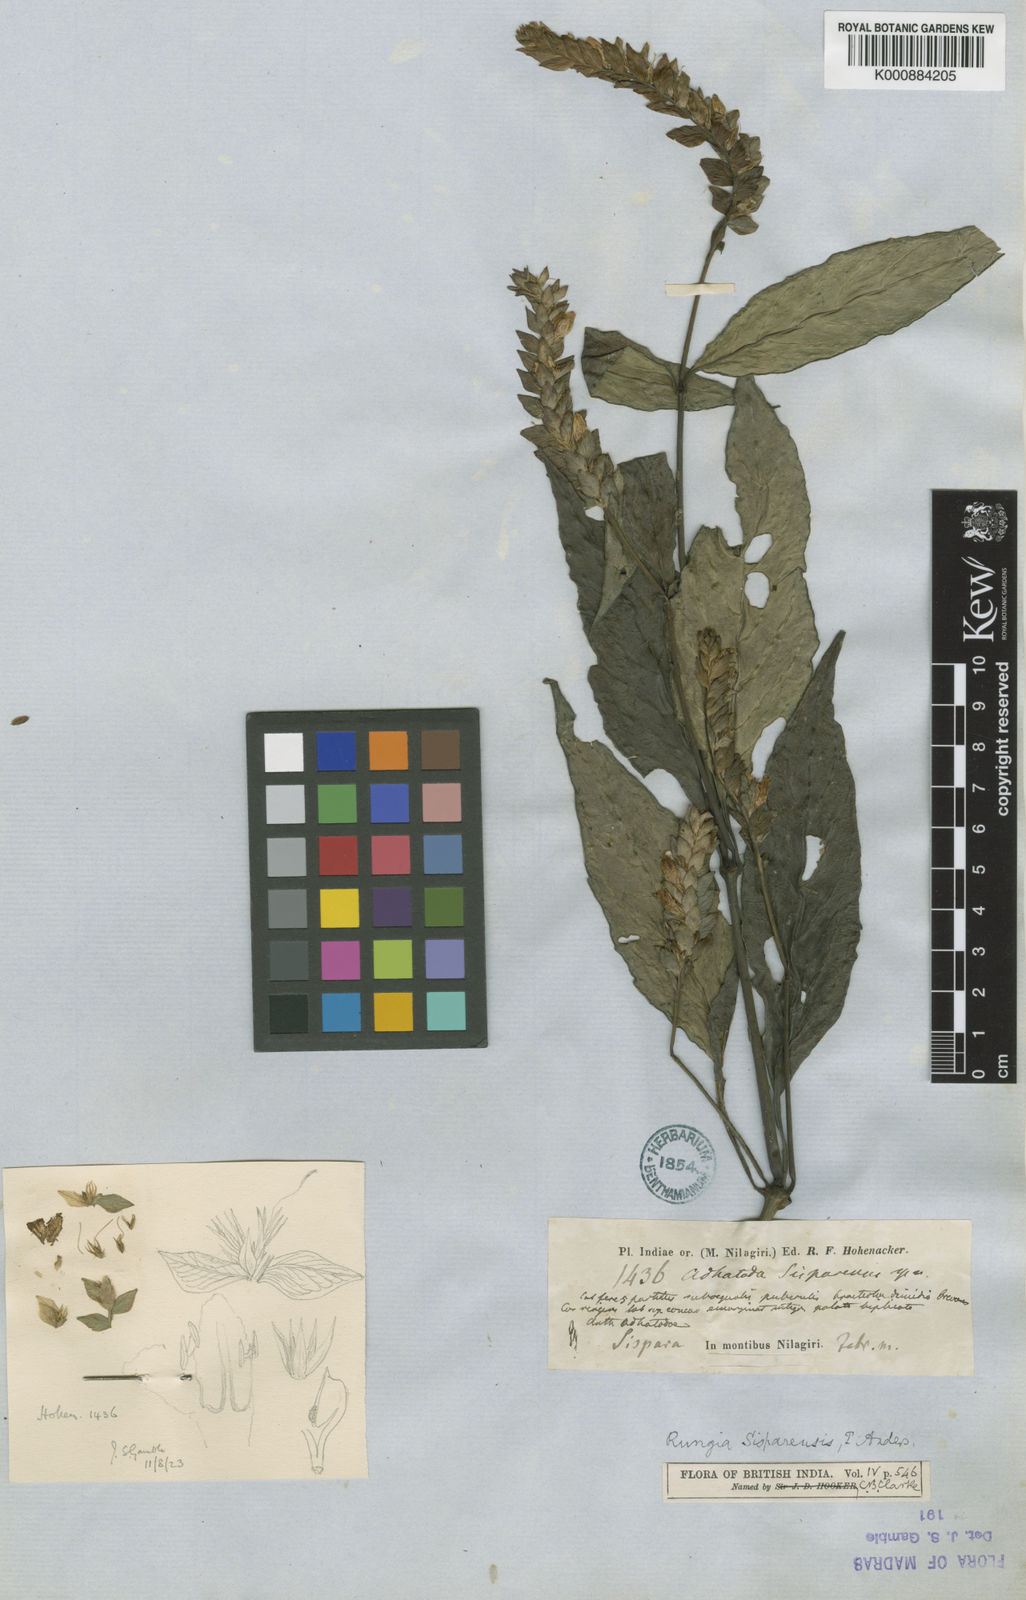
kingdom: Plantae
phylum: Tracheophyta
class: Magnoliopsida
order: Lamiales
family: Acanthaceae
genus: Justicia
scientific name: Justicia
